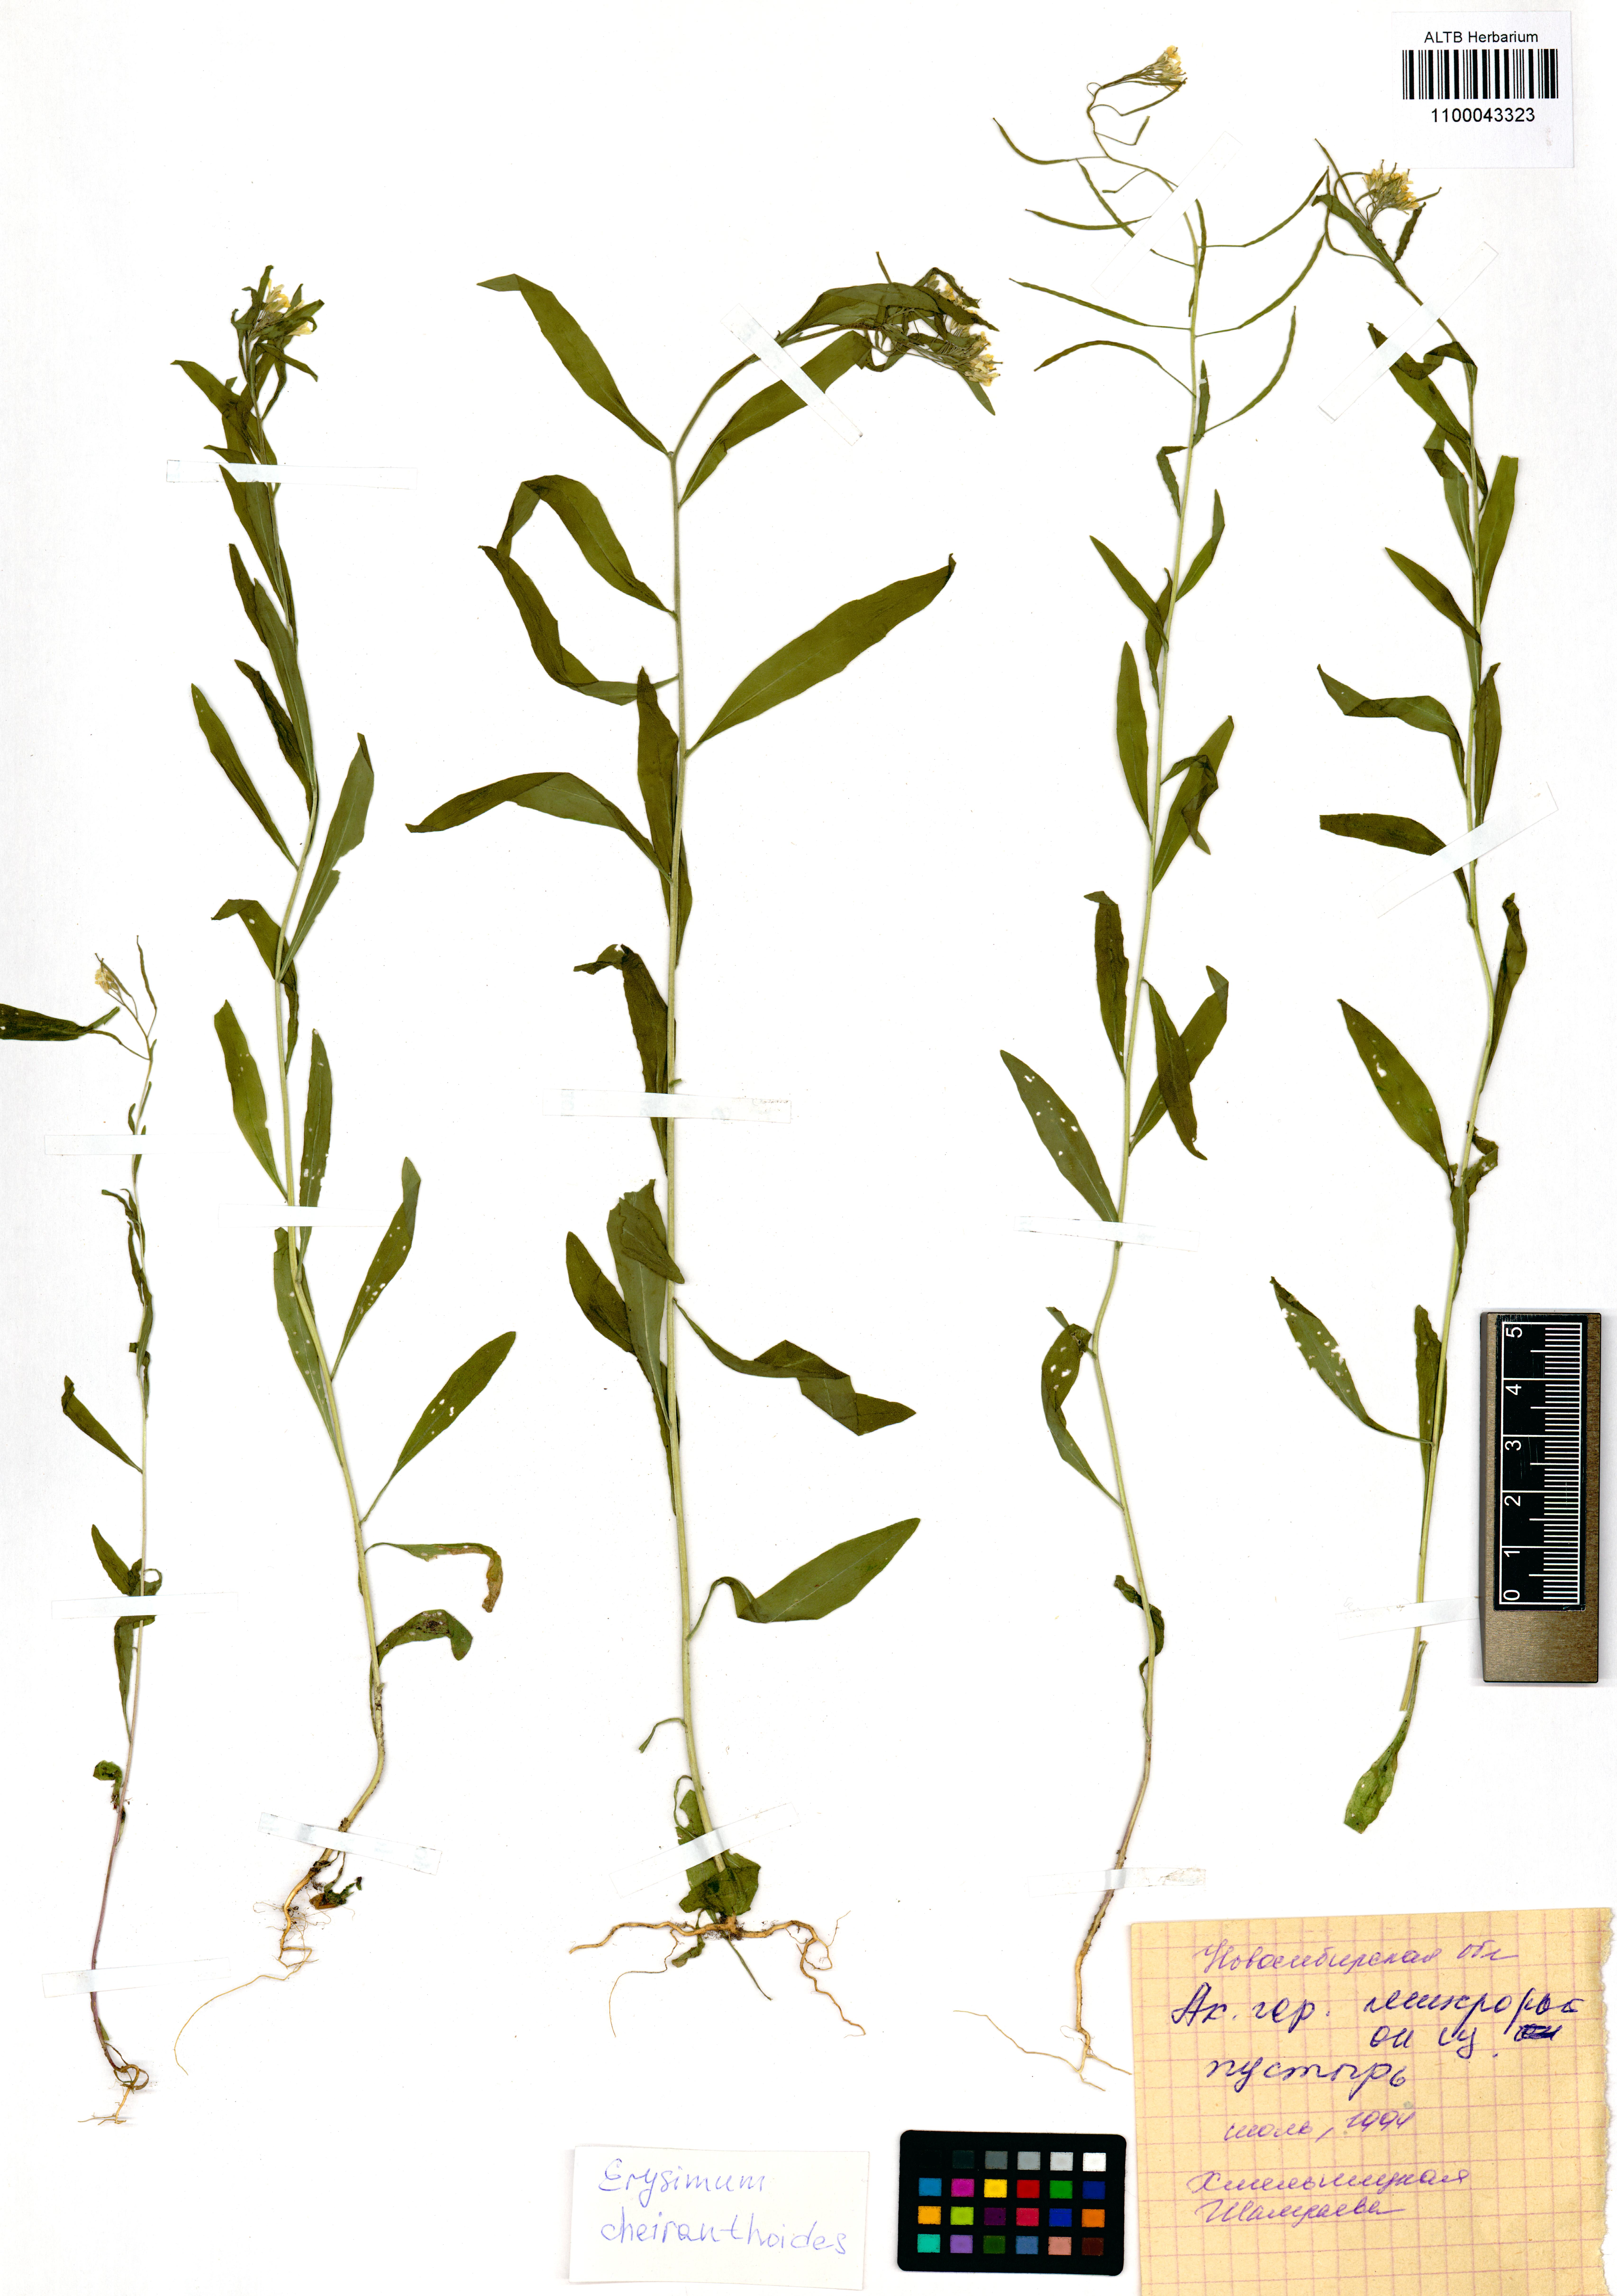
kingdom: Plantae
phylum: Tracheophyta
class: Magnoliopsida
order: Brassicales
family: Brassicaceae
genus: Erysimum
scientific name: Erysimum cheiranthoides
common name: Treacle mustard
